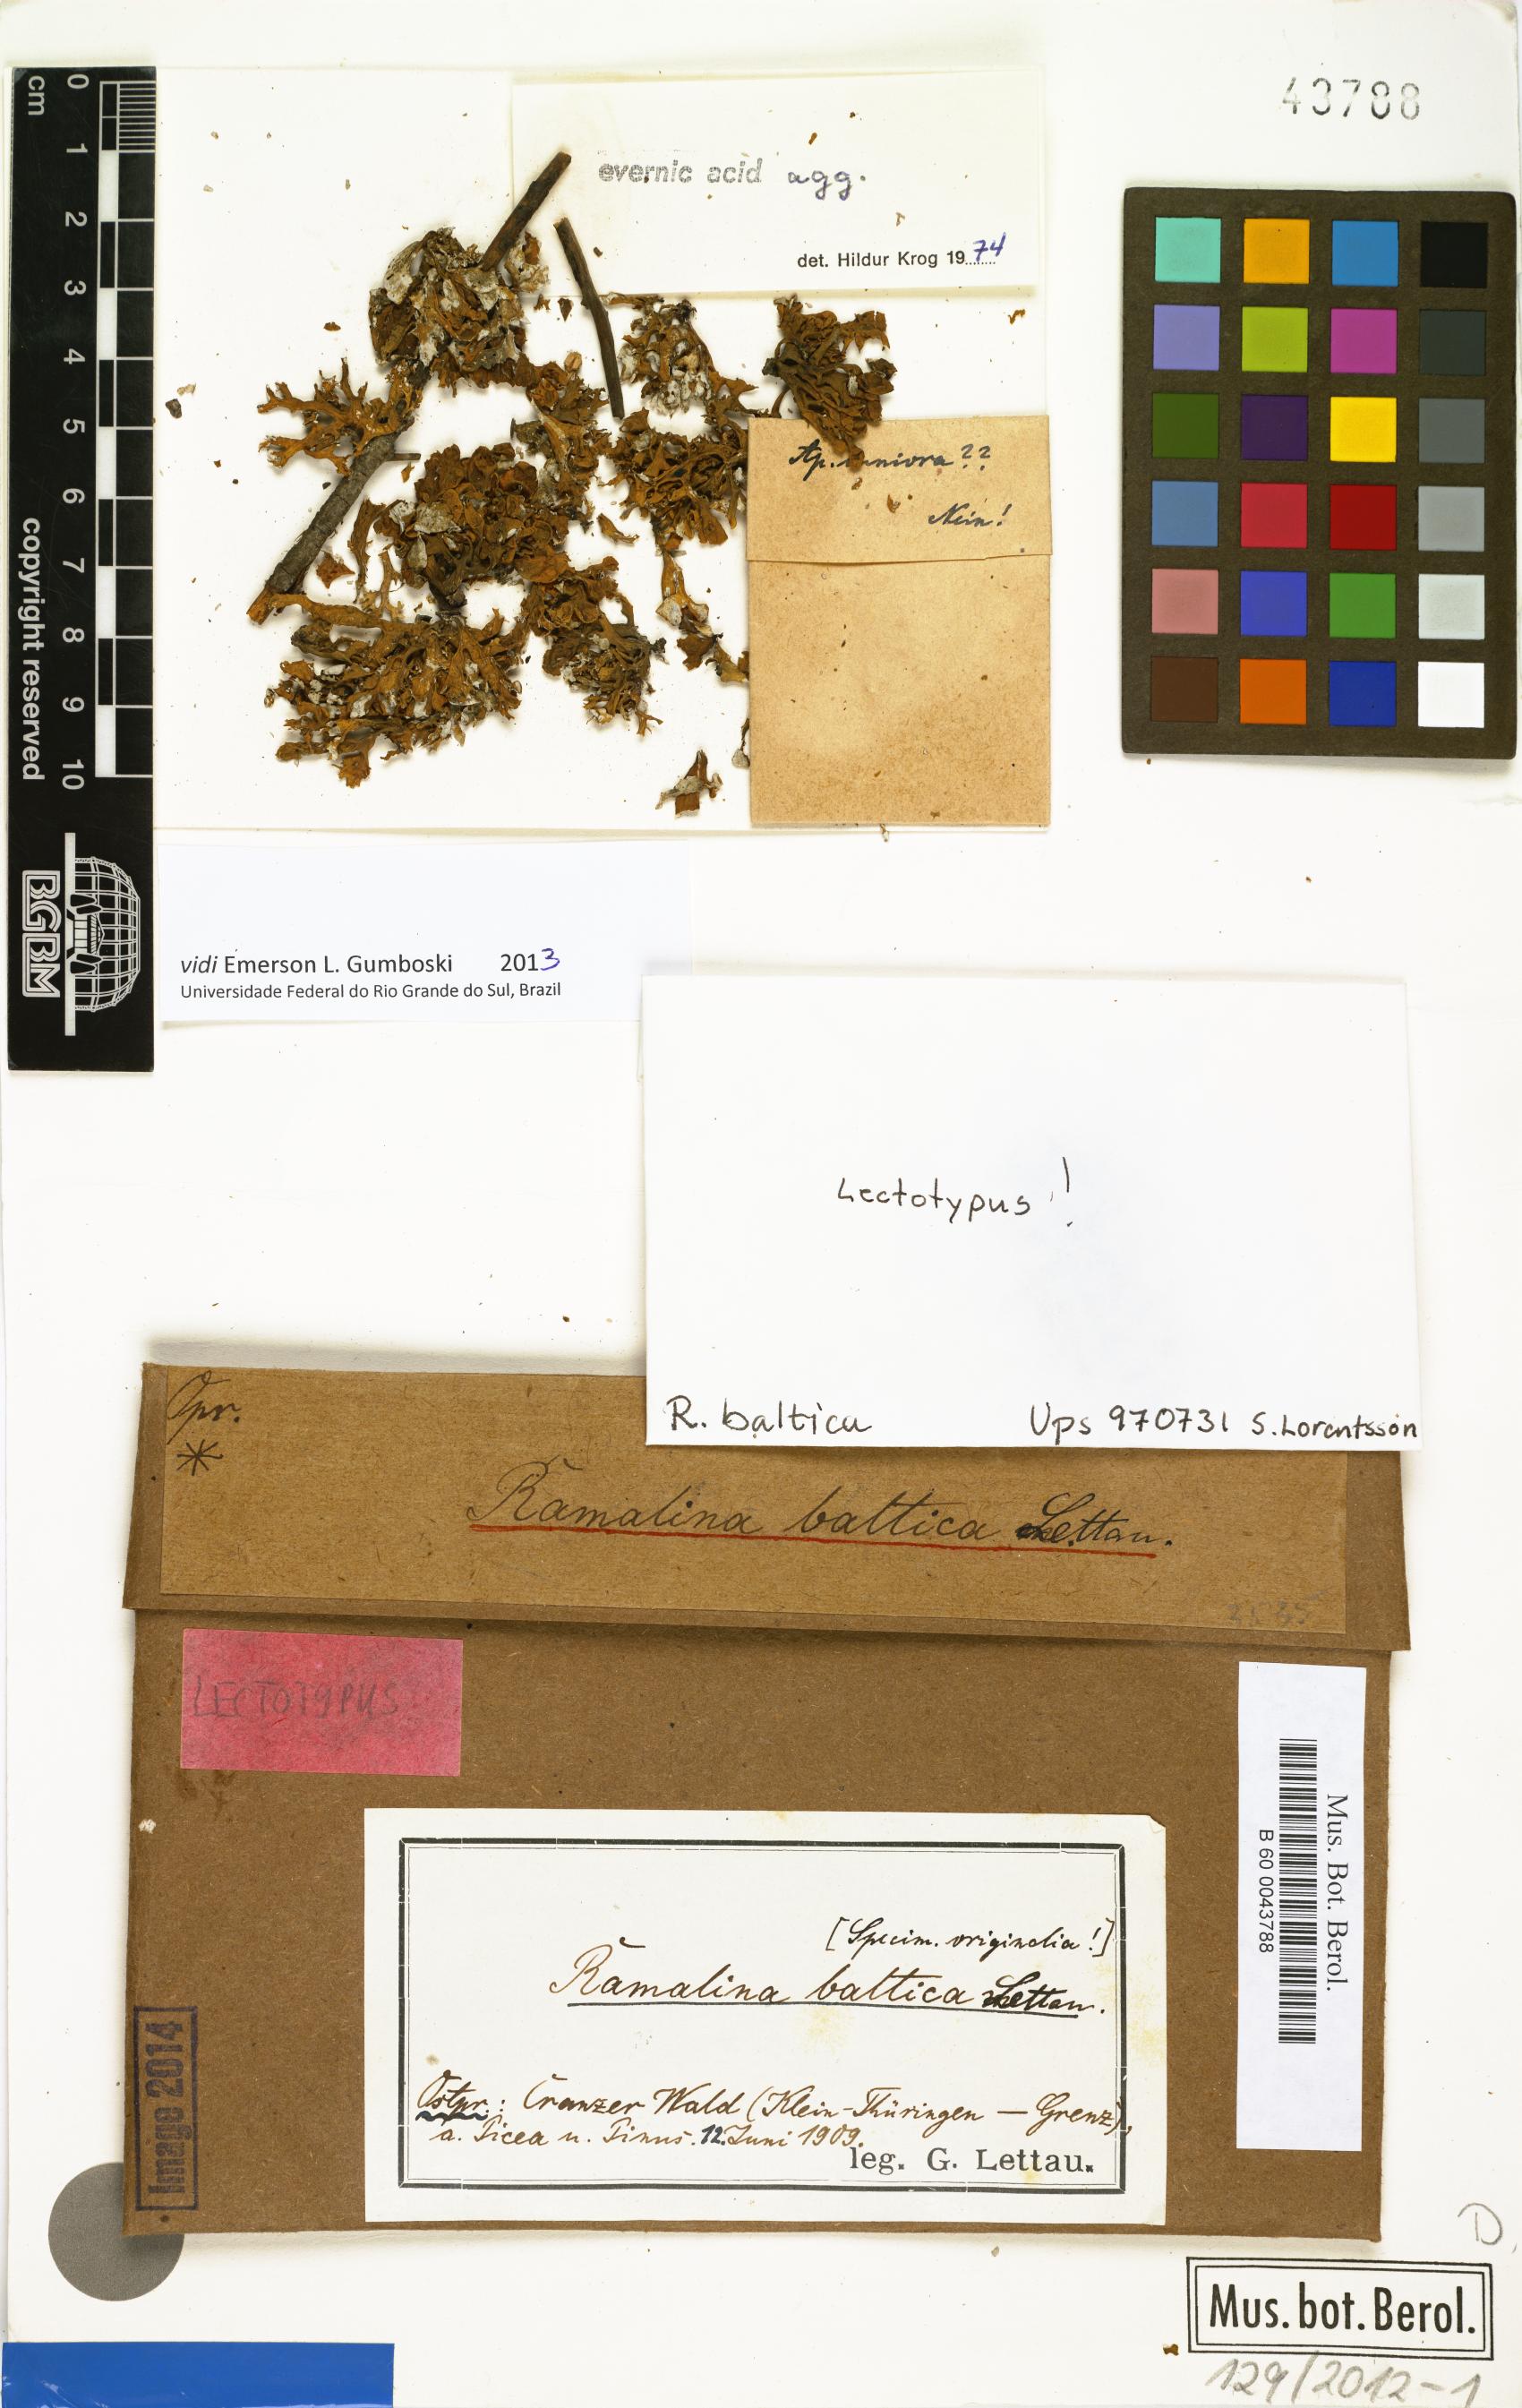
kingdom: Fungi
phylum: Ascomycota
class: Lecanoromycetes
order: Lecanorales
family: Ramalinaceae
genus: Ramalina
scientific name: Ramalina baltica
